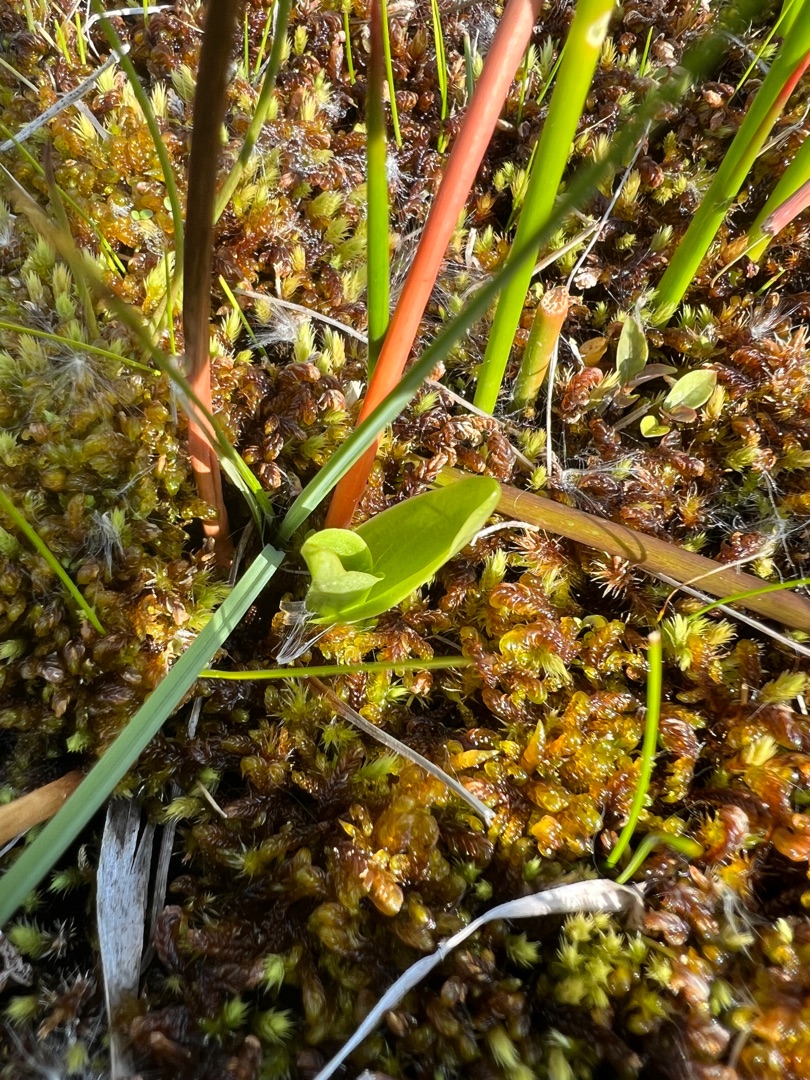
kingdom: Animalia
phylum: Arthropoda
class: Insecta
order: Coleoptera
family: Curculionidae
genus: Liparis
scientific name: Liparis loeselii
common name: Mygblomst
